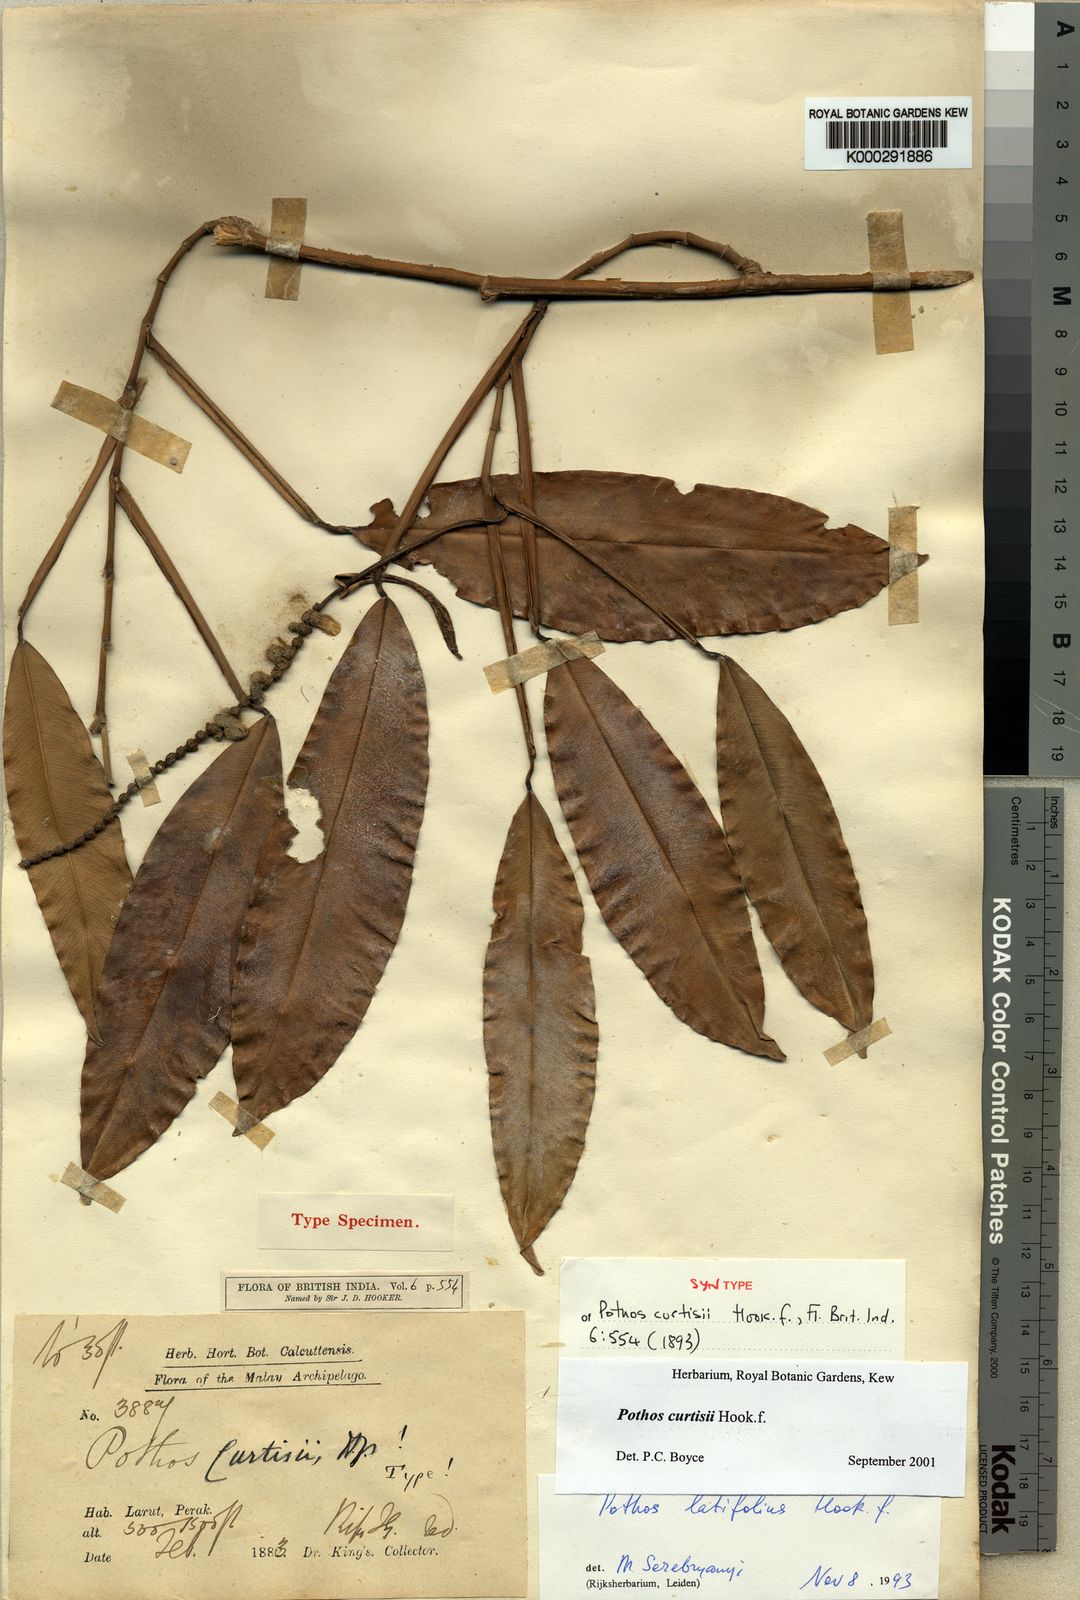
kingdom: Plantae
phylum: Tracheophyta
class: Liliopsida
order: Alismatales
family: Araceae
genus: Pothos
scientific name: Pothos curtisii
